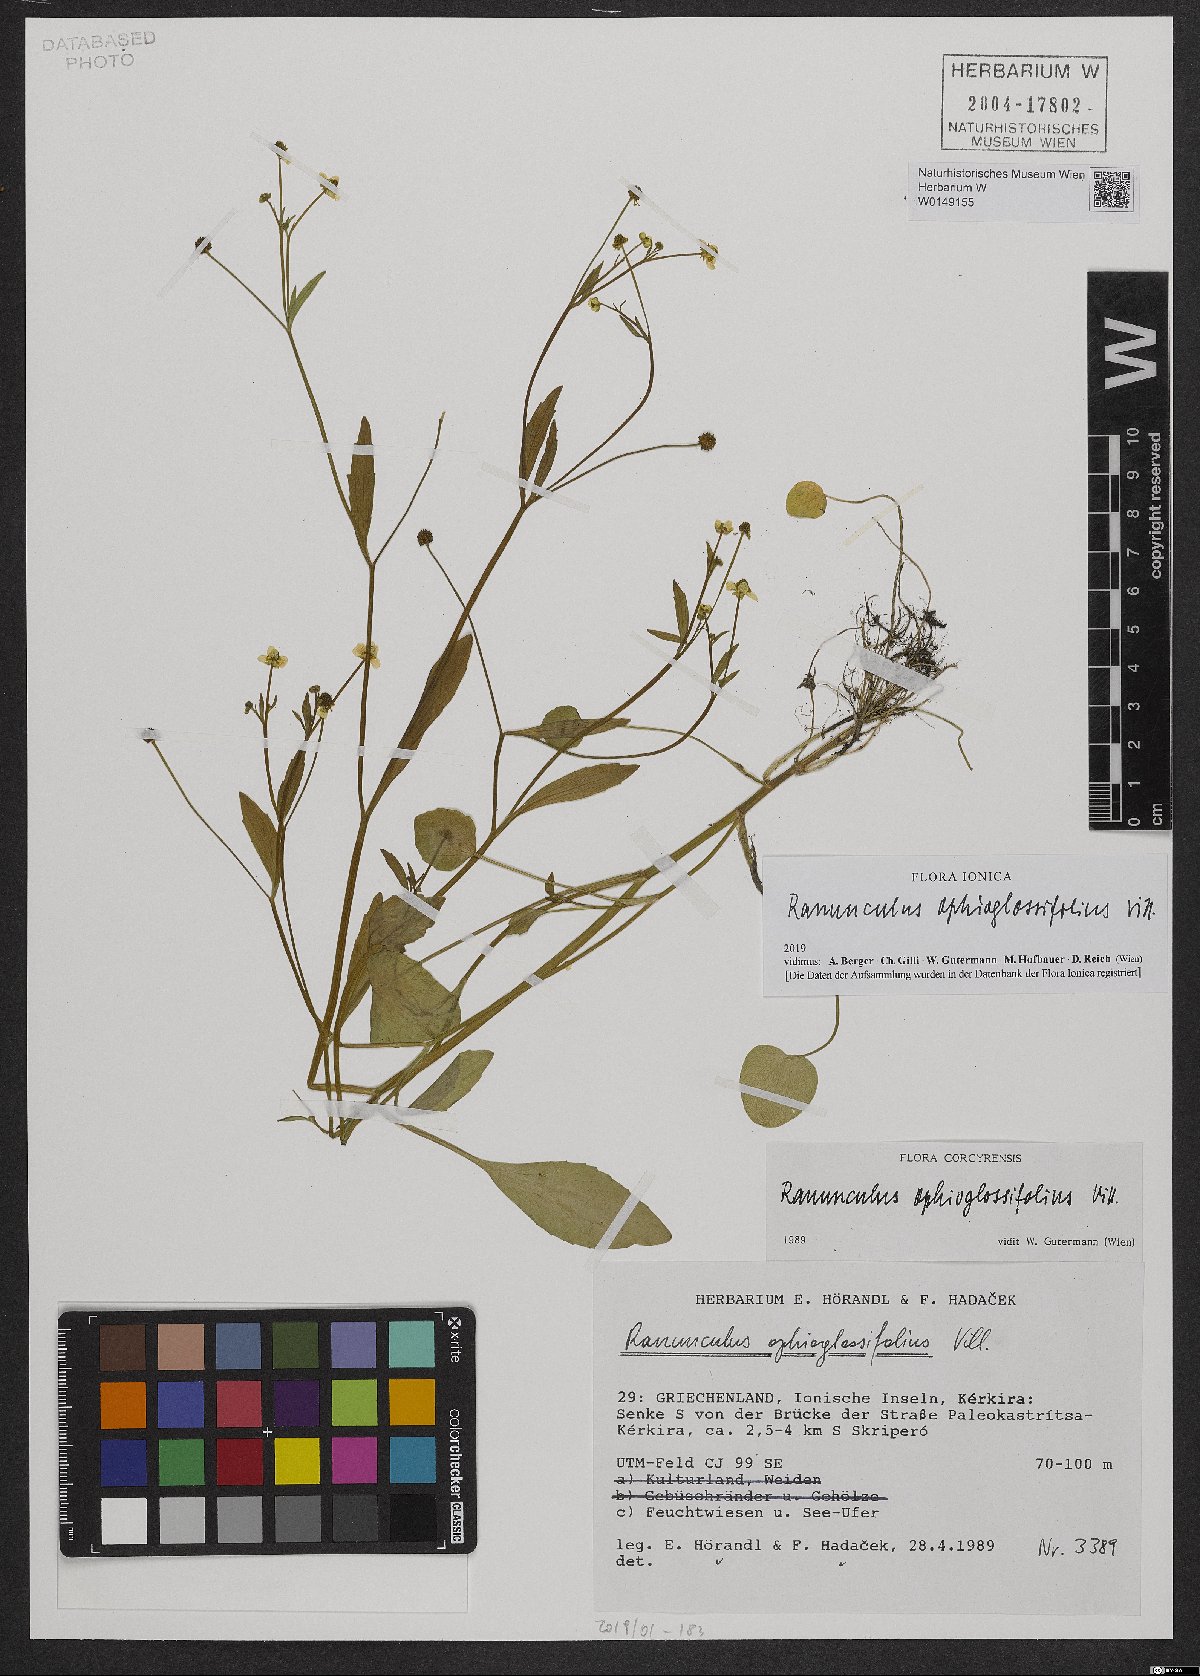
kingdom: Plantae
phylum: Tracheophyta
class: Magnoliopsida
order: Ranunculales
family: Ranunculaceae
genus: Ranunculus
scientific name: Ranunculus ophioglossifolius
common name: Adder's-tongue spearwort
